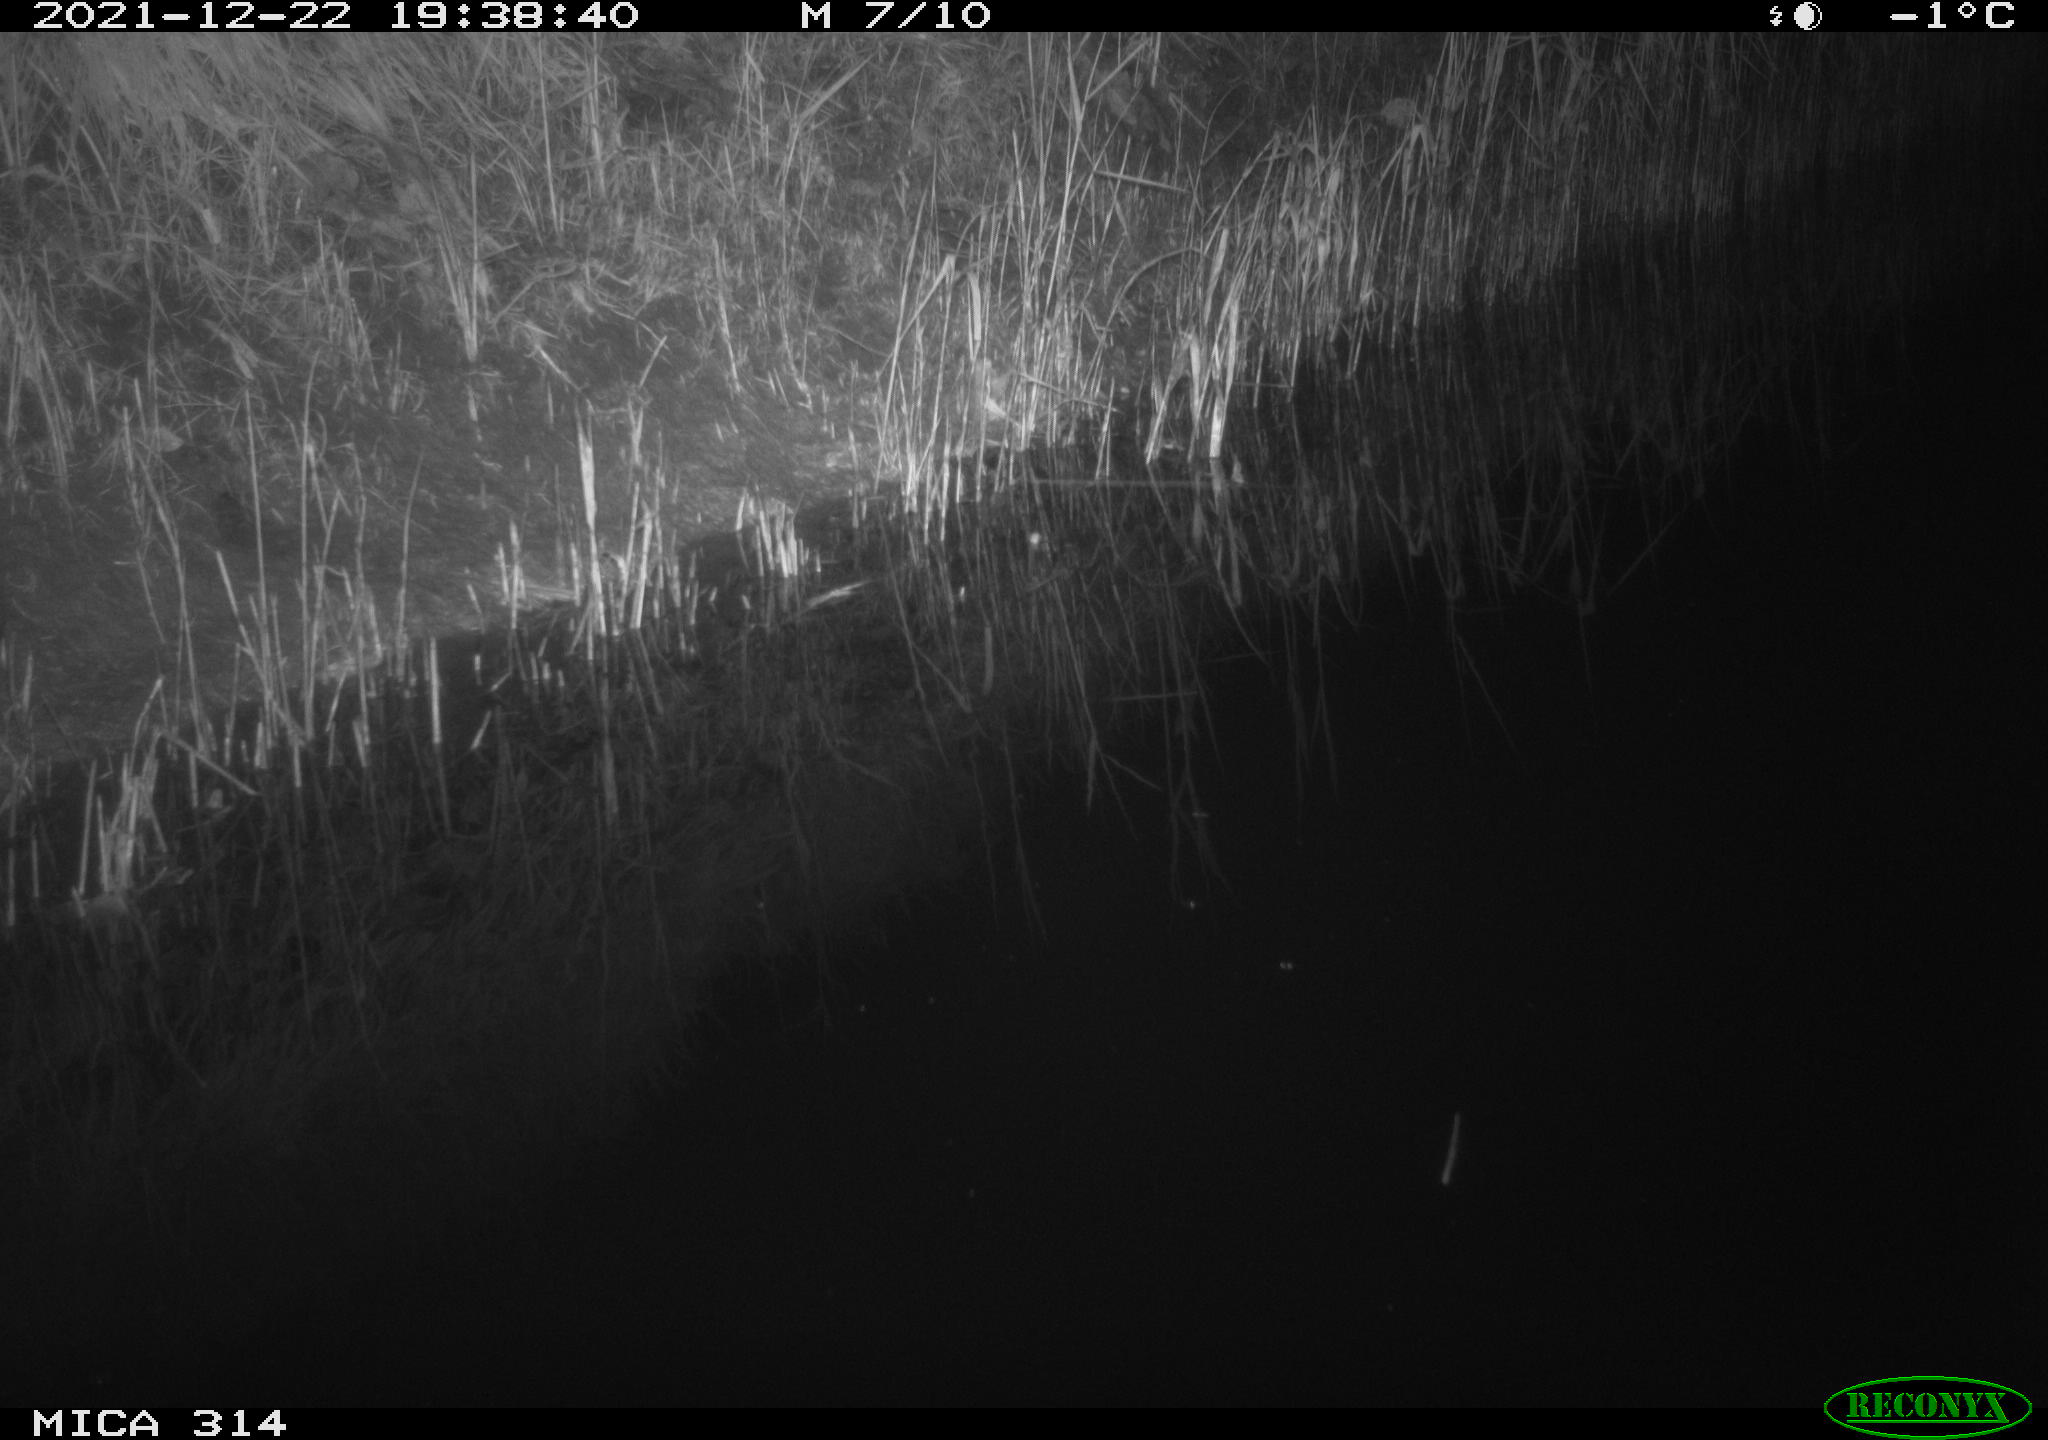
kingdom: Animalia
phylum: Chordata
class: Mammalia
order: Rodentia
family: Muridae
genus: Rattus
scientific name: Rattus norvegicus
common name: Brown rat
